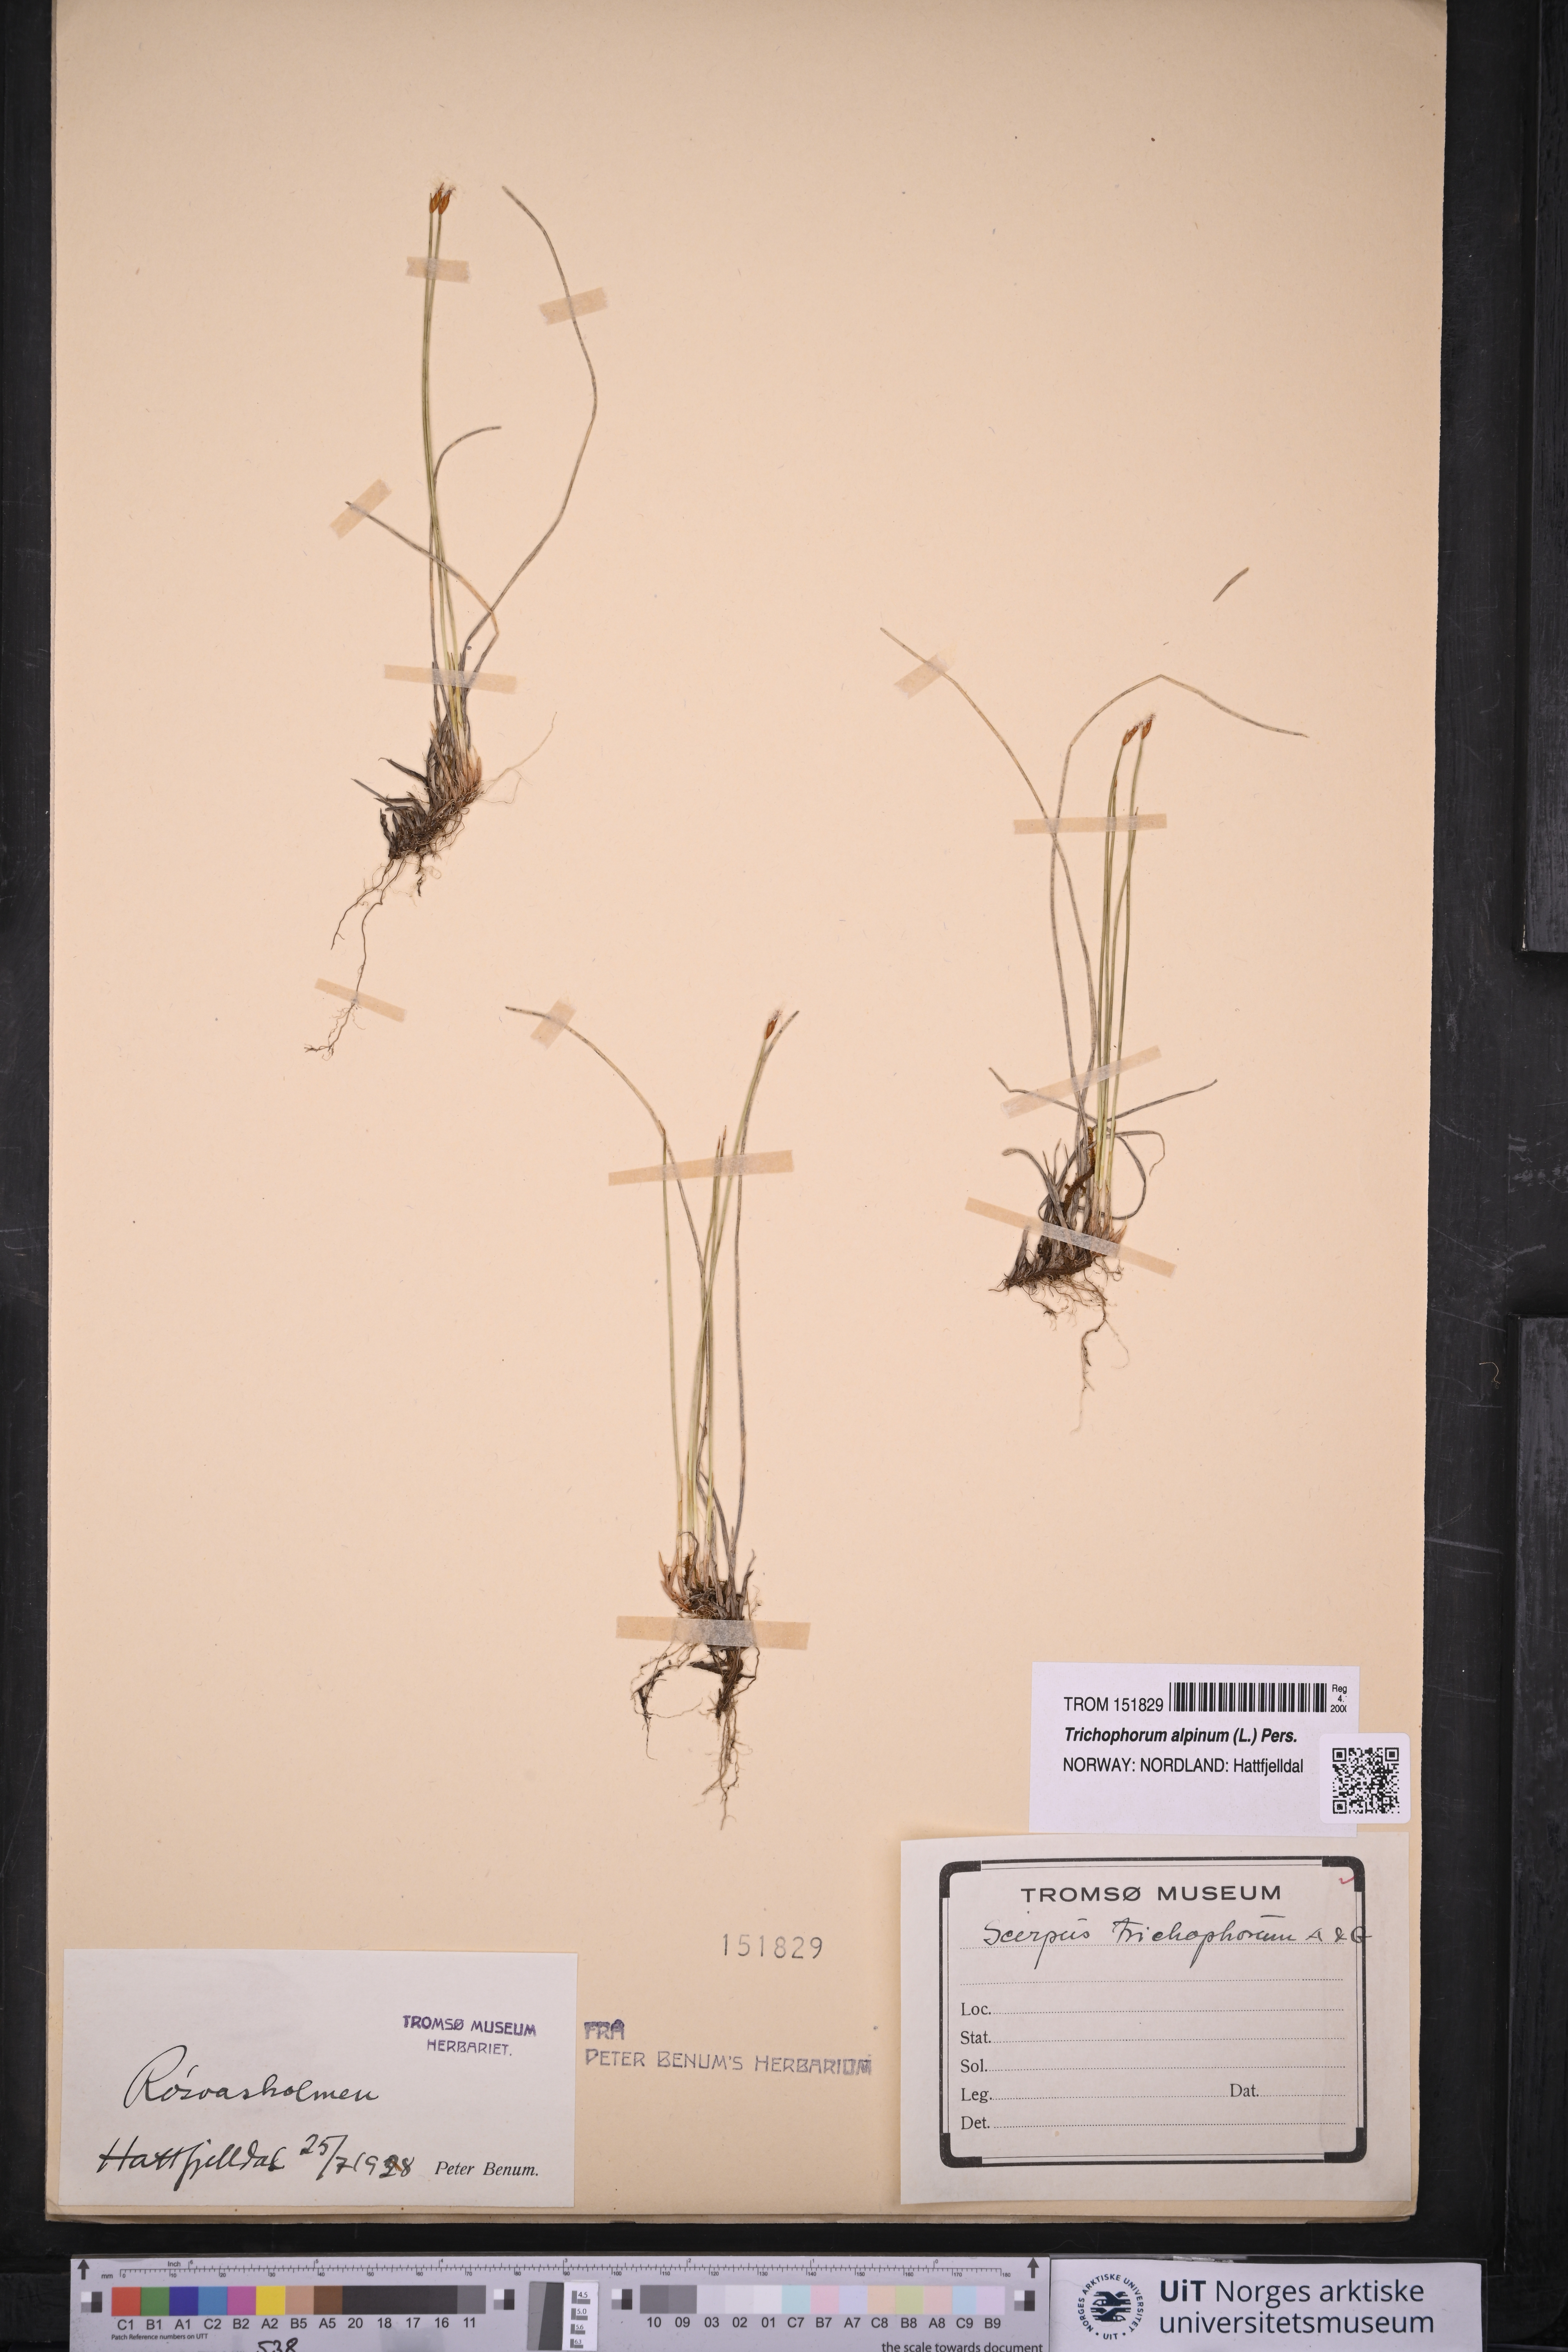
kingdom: Plantae
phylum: Tracheophyta
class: Liliopsida
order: Poales
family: Cyperaceae
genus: Trichophorum
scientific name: Trichophorum alpinum
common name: Alpine bulrush
